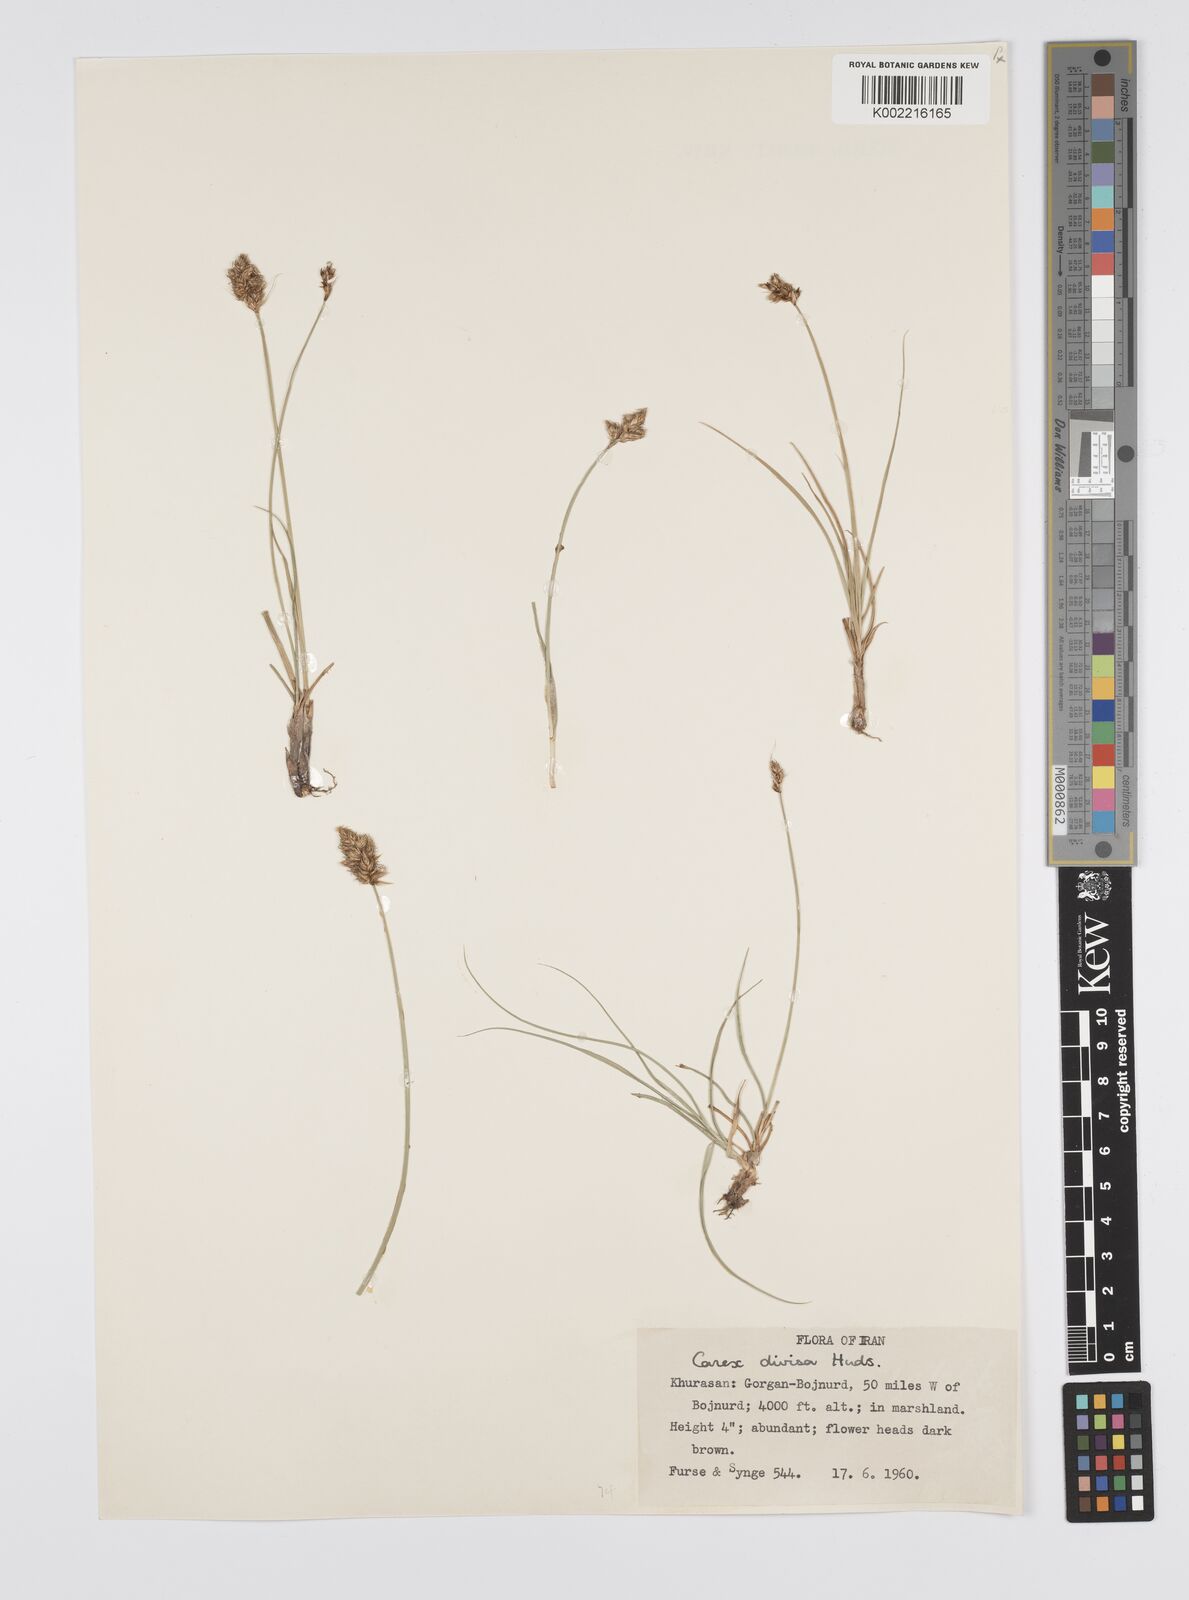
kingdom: Plantae
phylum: Tracheophyta
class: Liliopsida
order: Poales
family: Cyperaceae
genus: Carex
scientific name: Carex divisa
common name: Divided sedge
